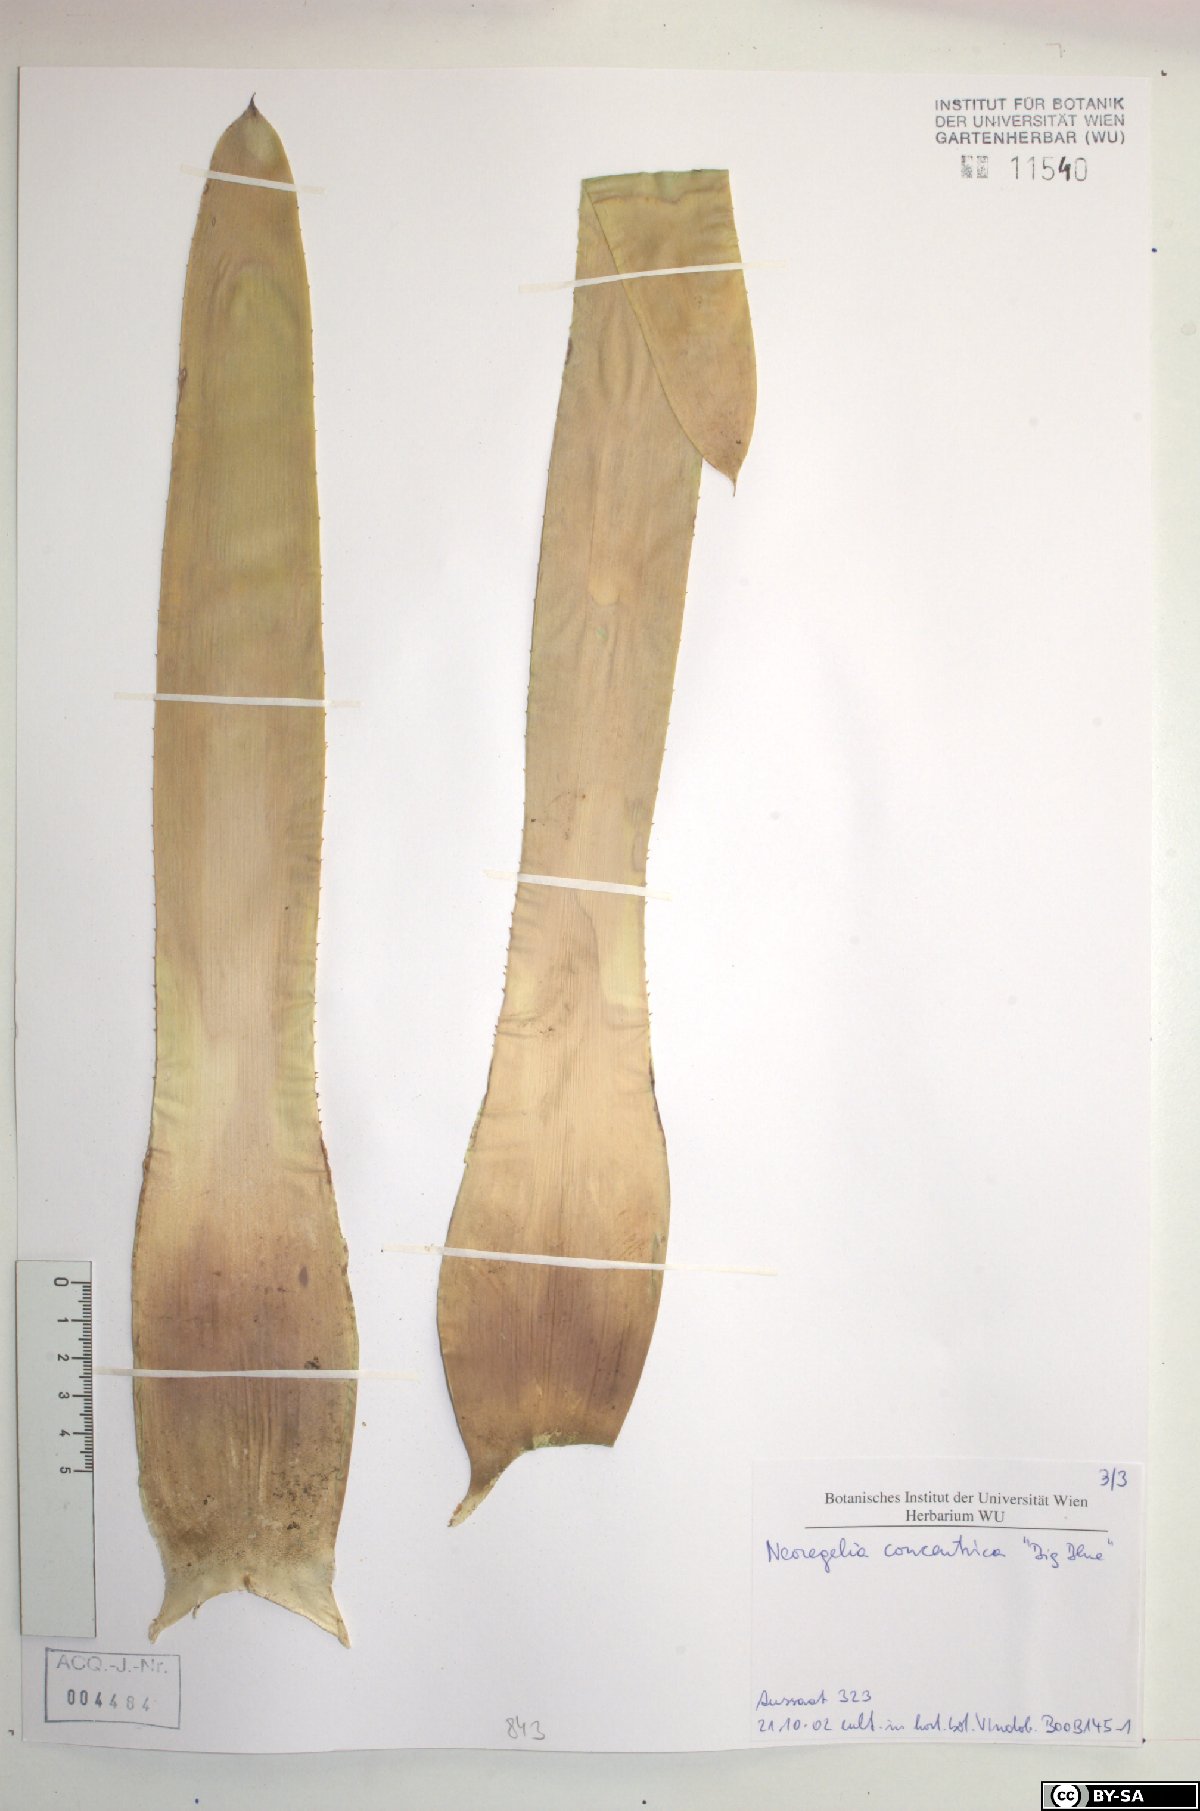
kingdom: Plantae
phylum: Tracheophyta
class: Liliopsida
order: Poales
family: Bromeliaceae
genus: Neoregelia
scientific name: Neoregelia concentrica
